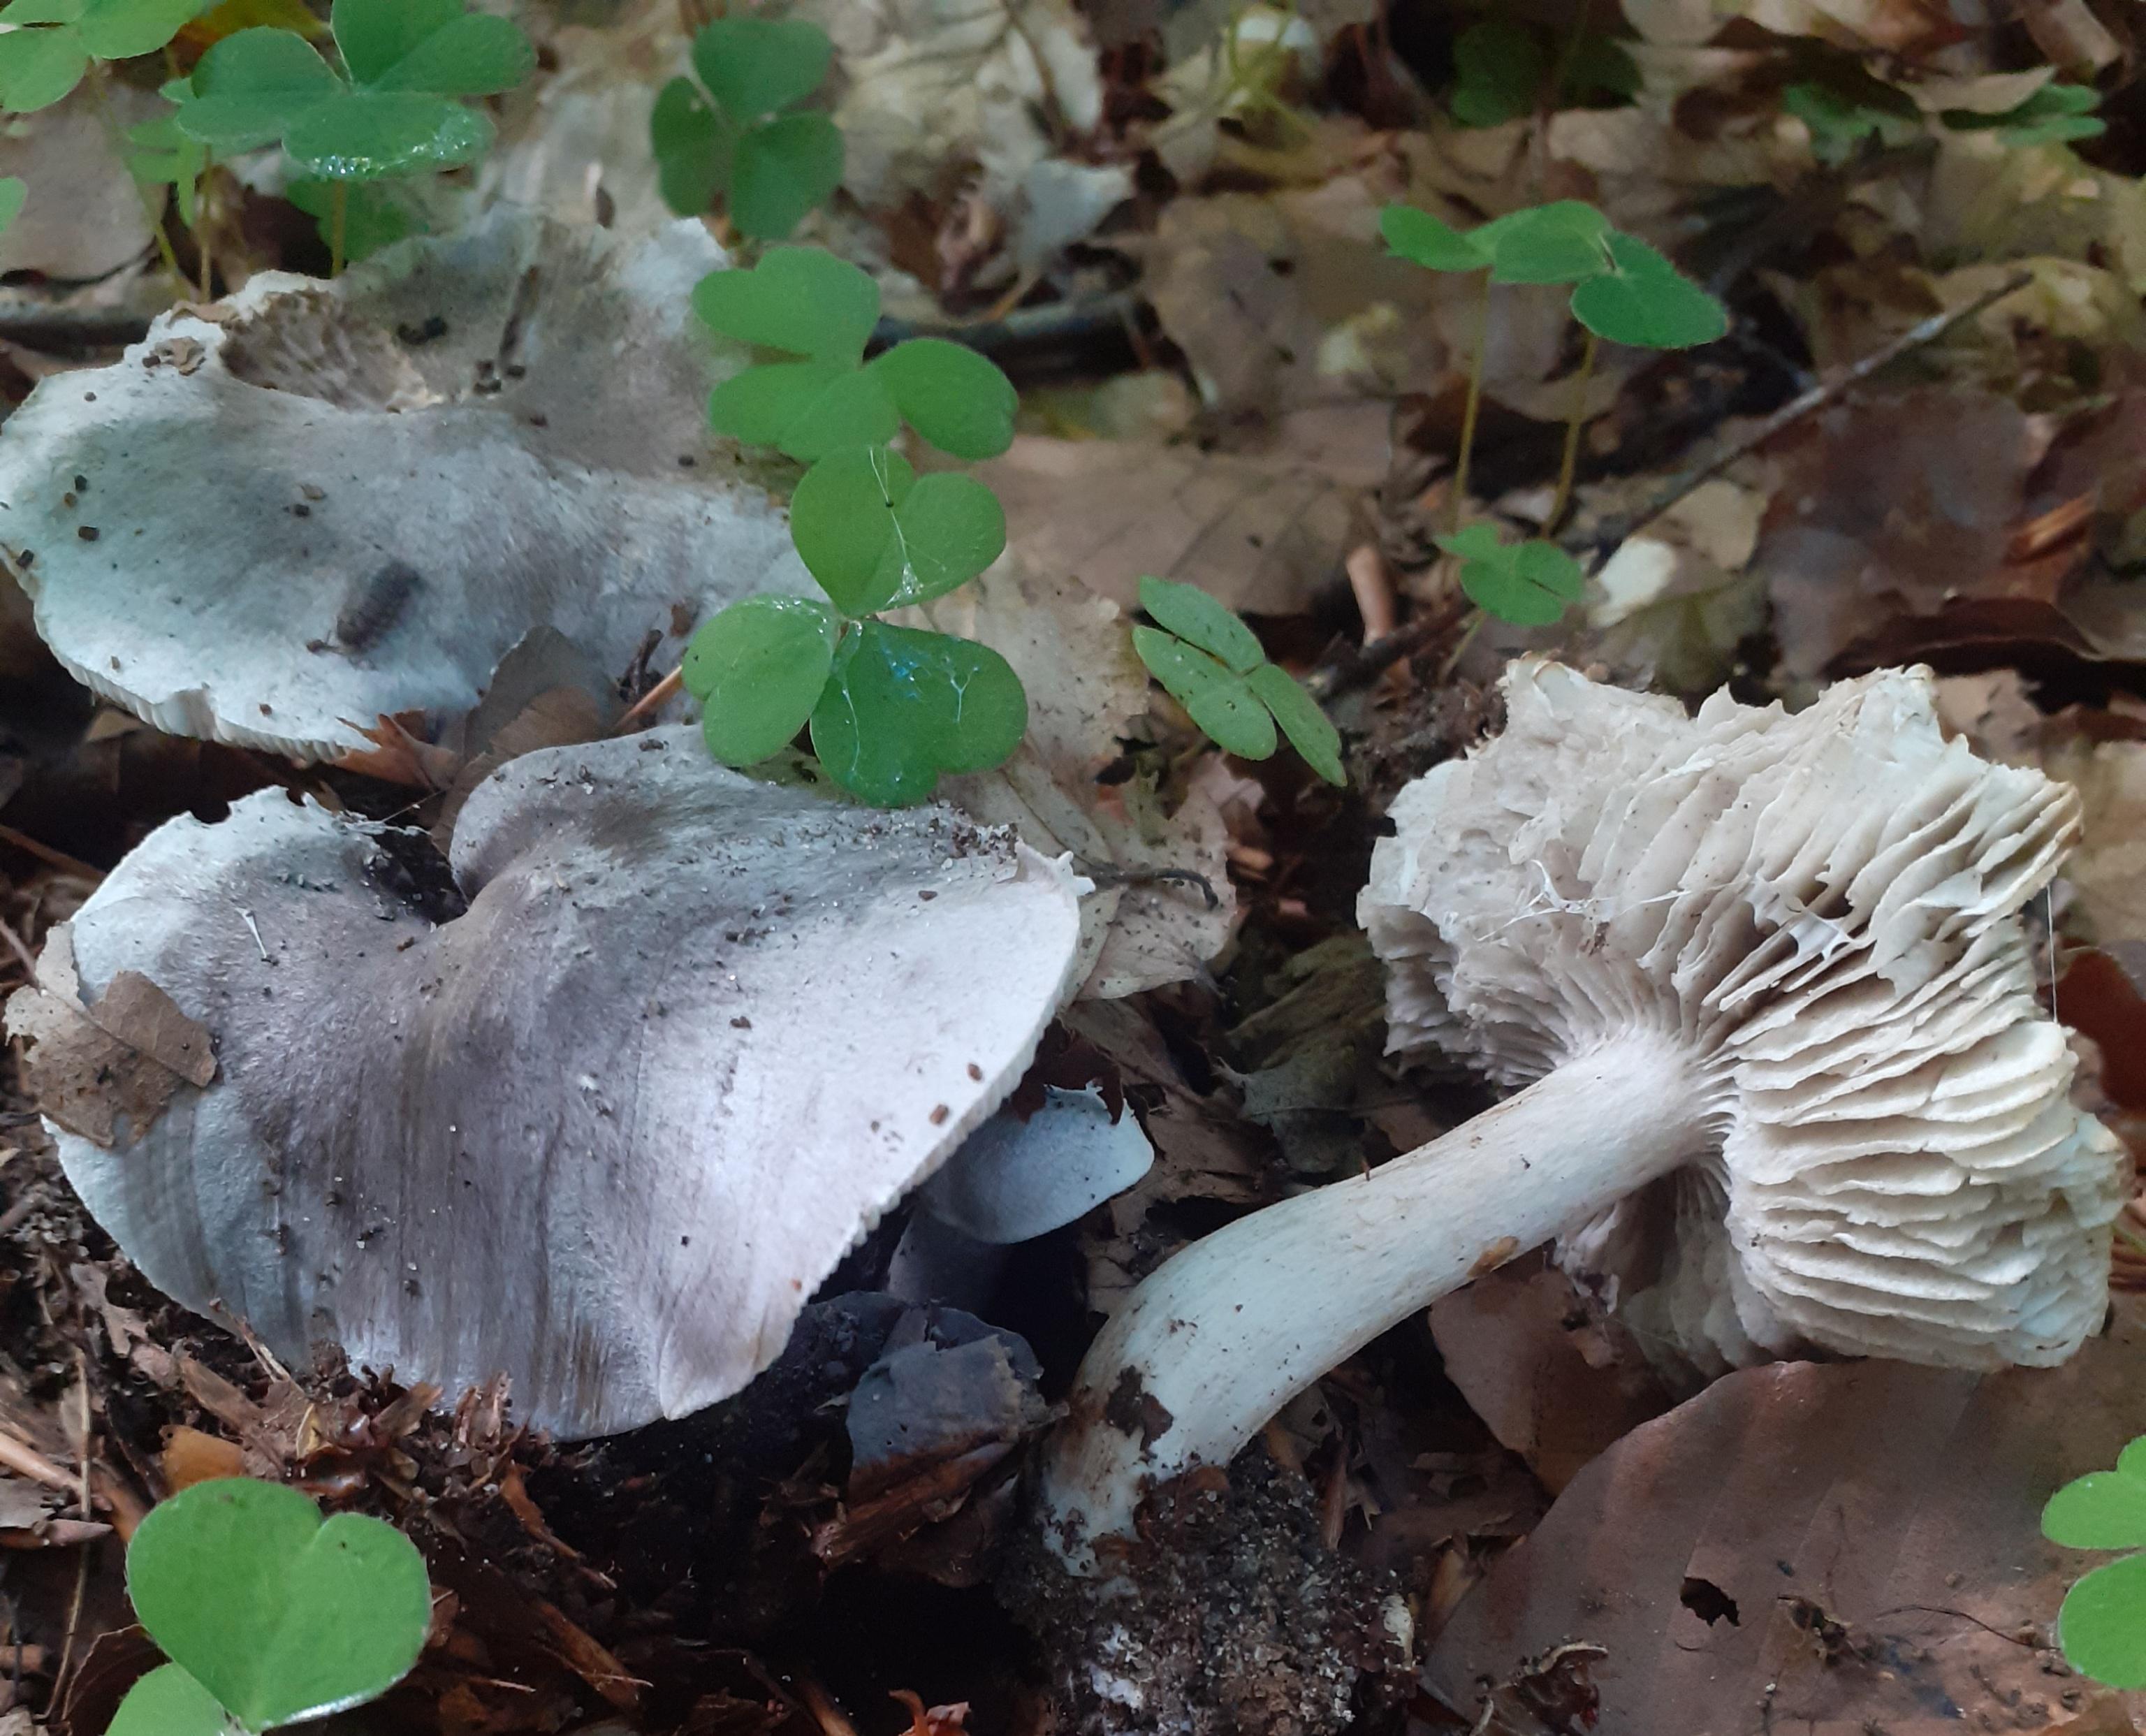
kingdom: Fungi
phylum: Basidiomycota
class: Agaricomycetes
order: Agaricales
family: Tricholomataceae
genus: Tricholoma
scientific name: Tricholoma sciodes
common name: stribet ridderhat
